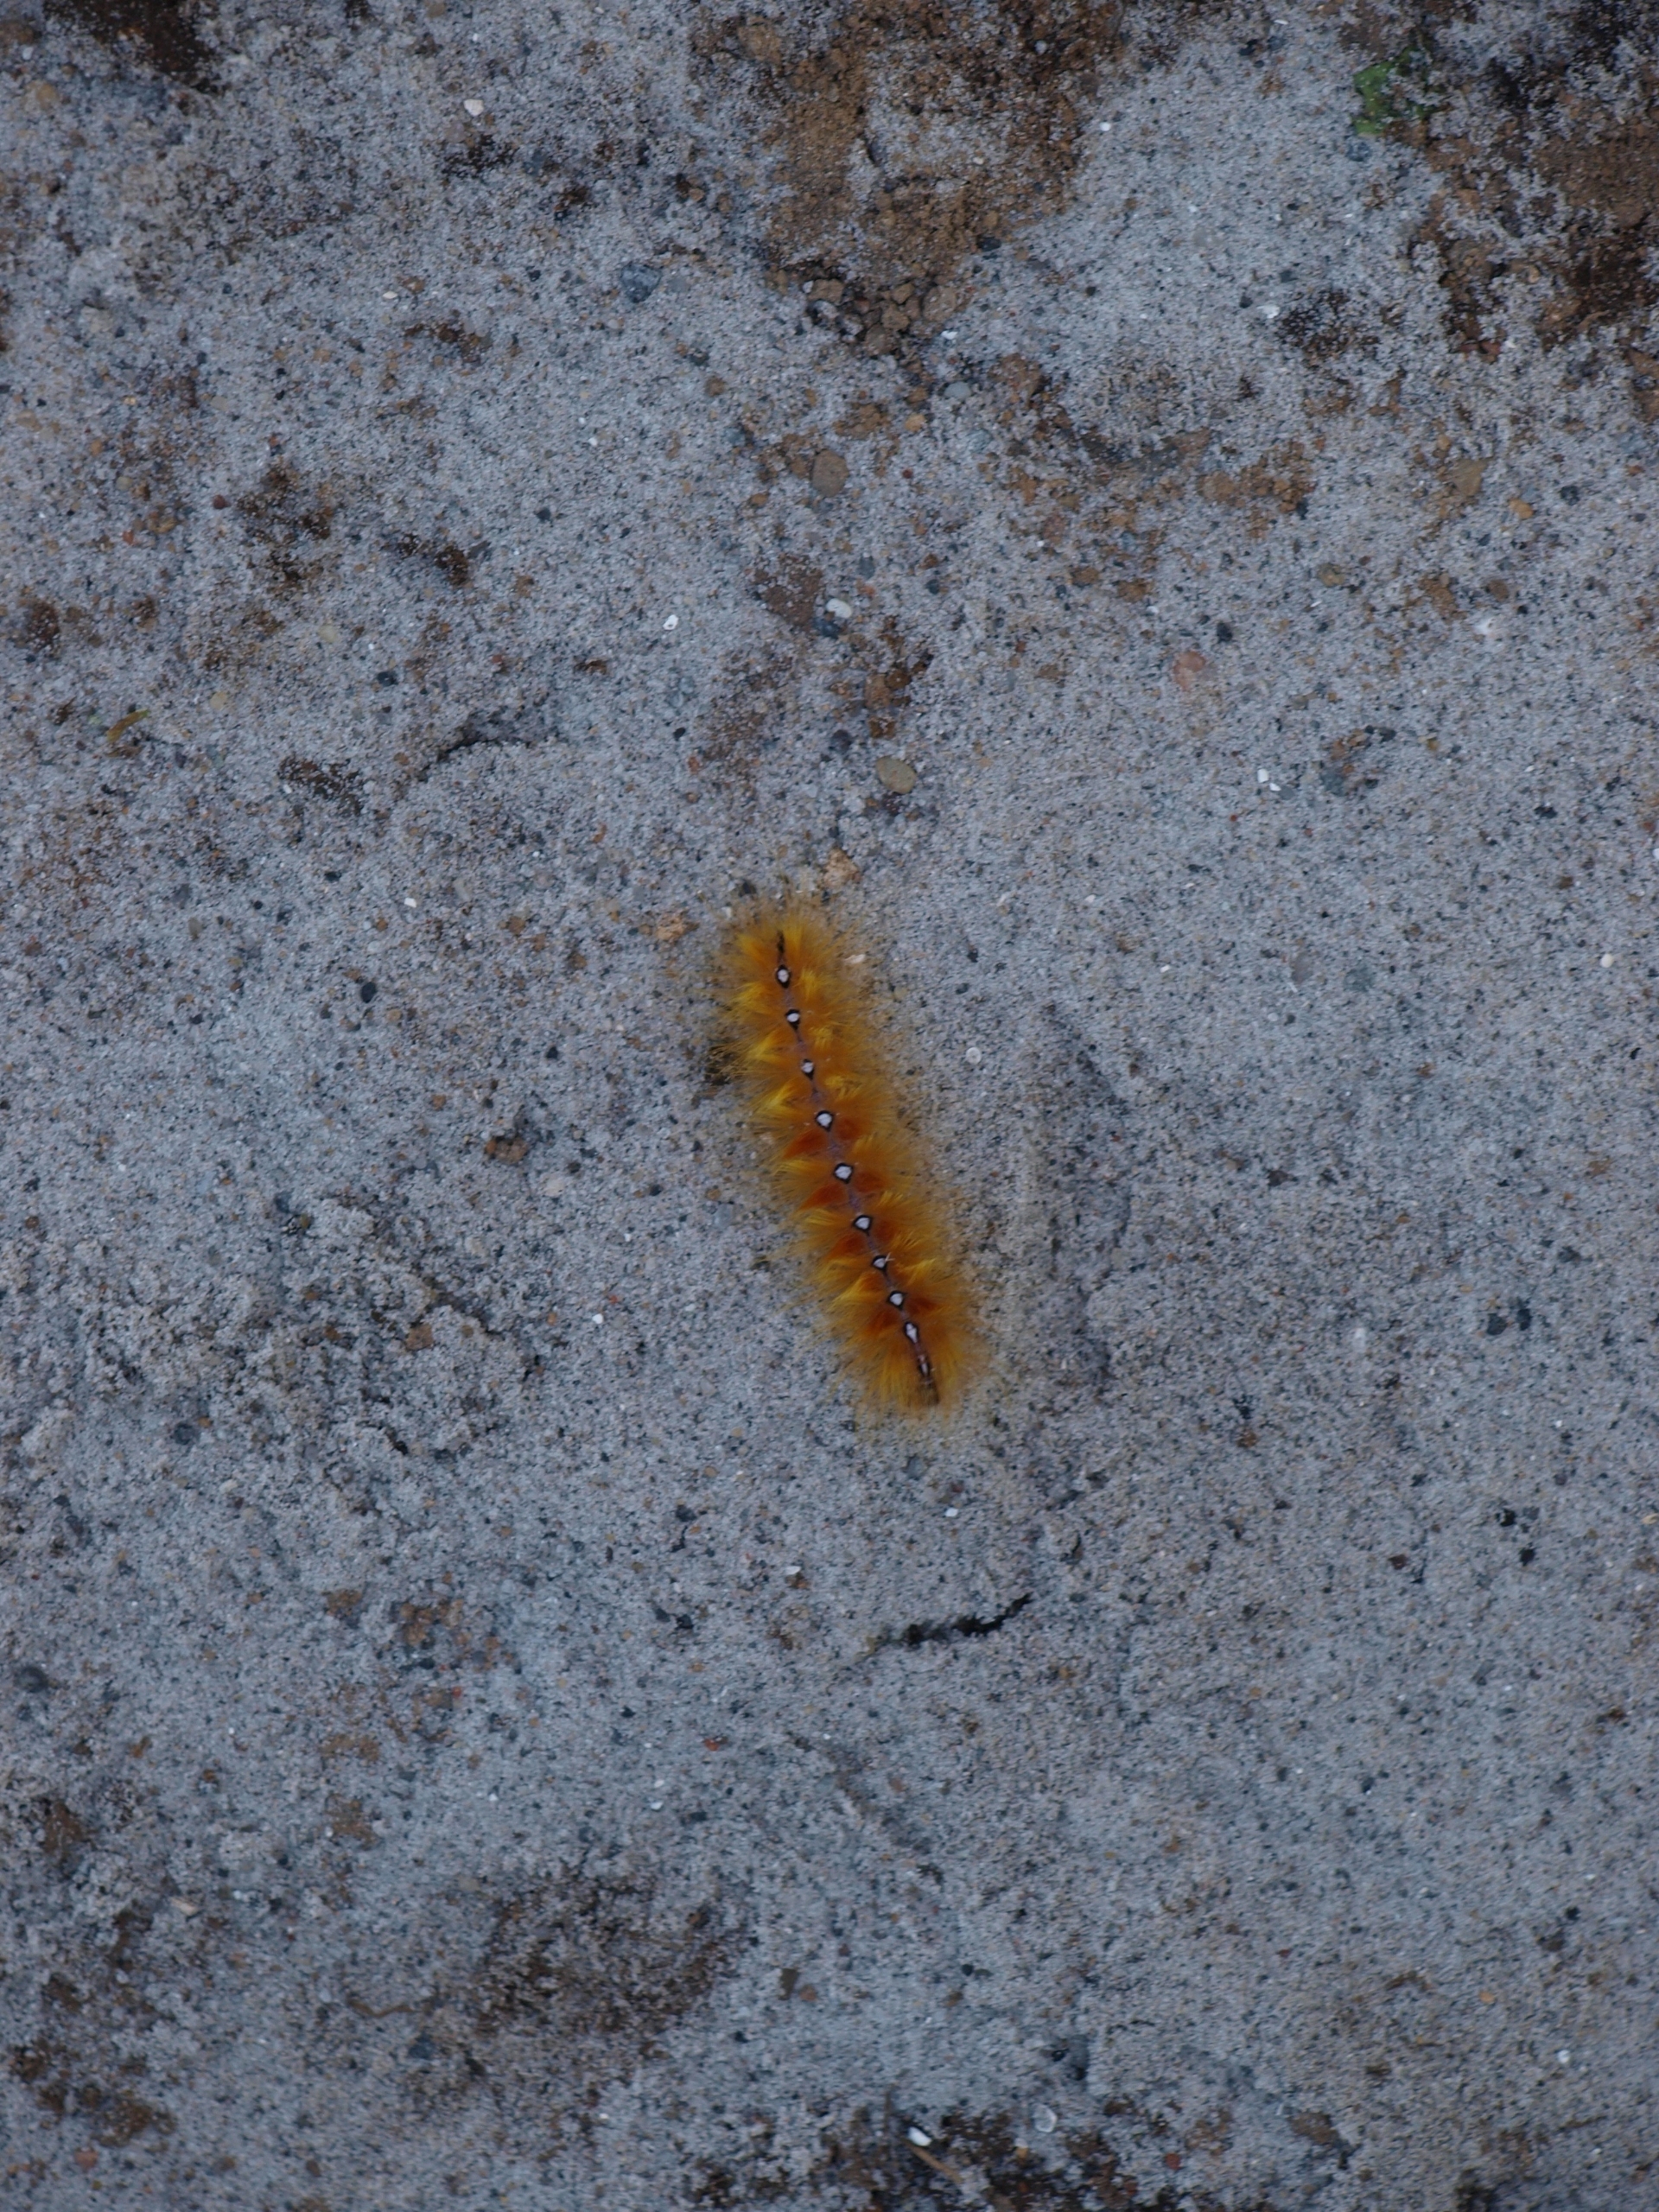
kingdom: Animalia
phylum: Arthropoda
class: Insecta
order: Lepidoptera
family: Noctuidae
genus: Acronicta
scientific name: Acronicta aceris
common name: Ahornugle
